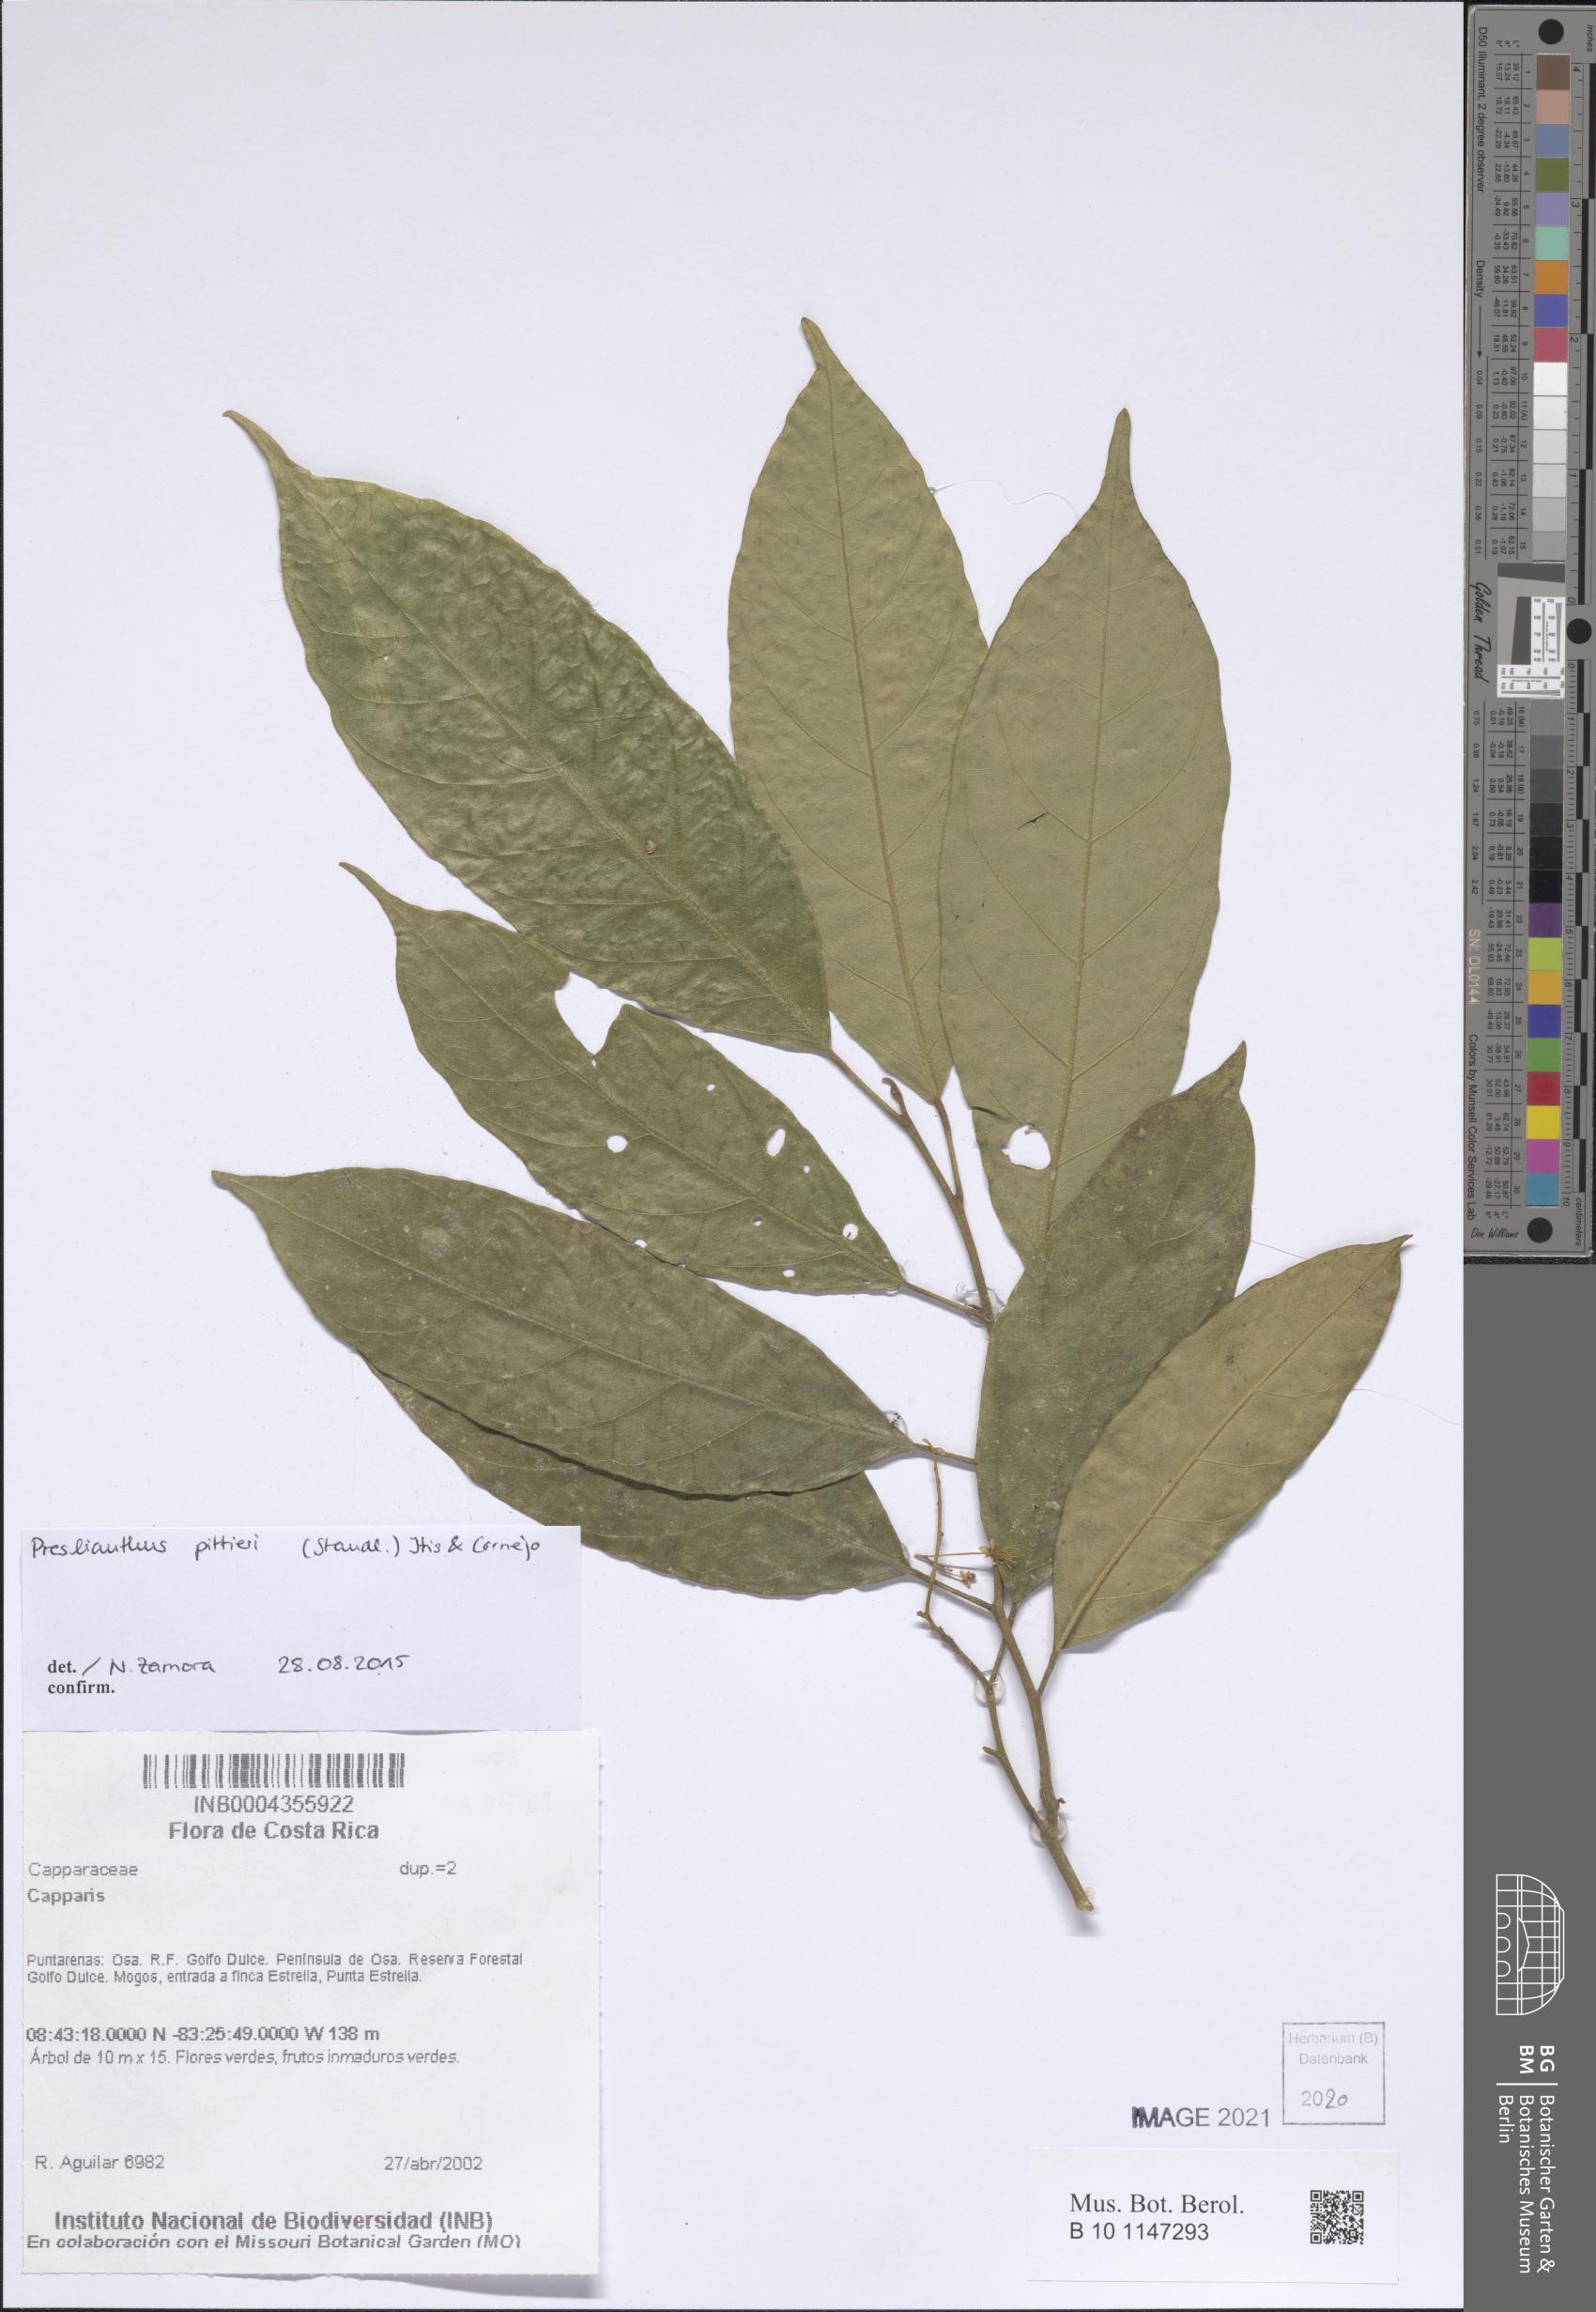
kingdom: Plantae
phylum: Tracheophyta
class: Magnoliopsida
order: Brassicales
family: Capparaceae
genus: Preslianthus
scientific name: Preslianthus pittieri
